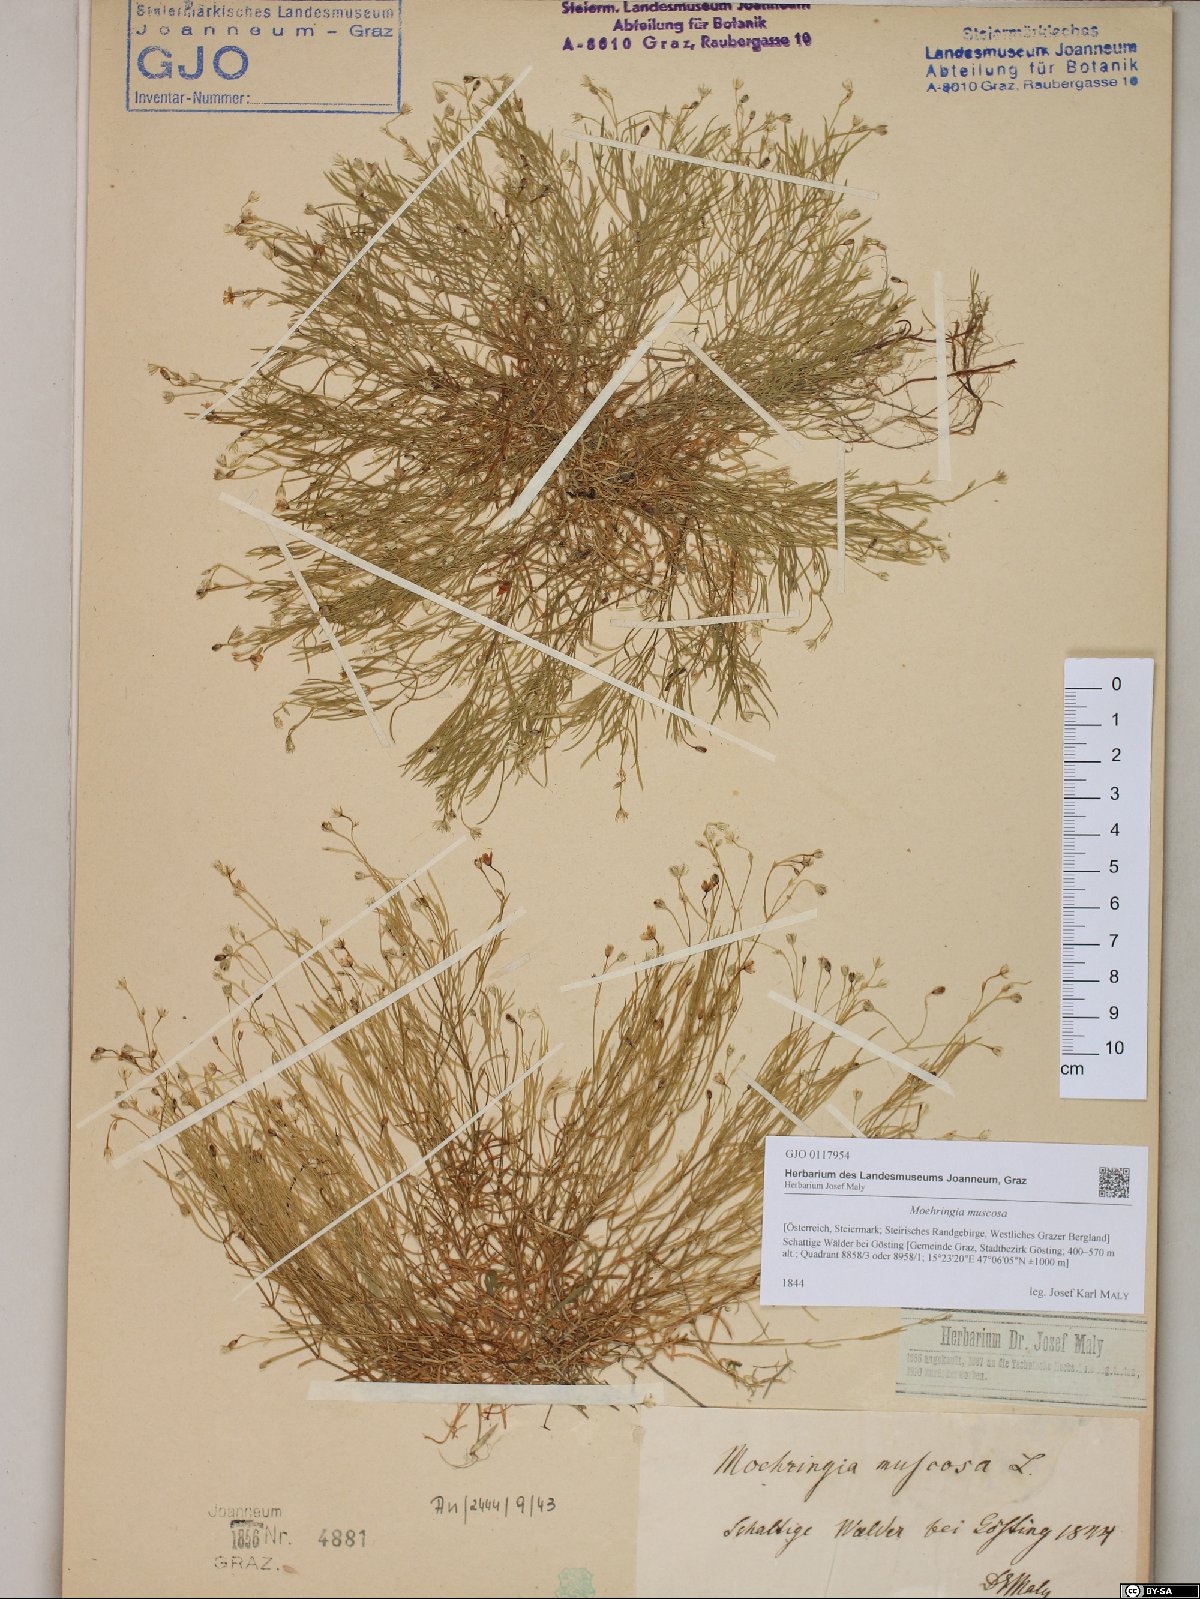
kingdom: Plantae
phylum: Tracheophyta
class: Magnoliopsida
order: Caryophyllales
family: Caryophyllaceae
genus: Moehringia
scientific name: Moehringia muscosa
